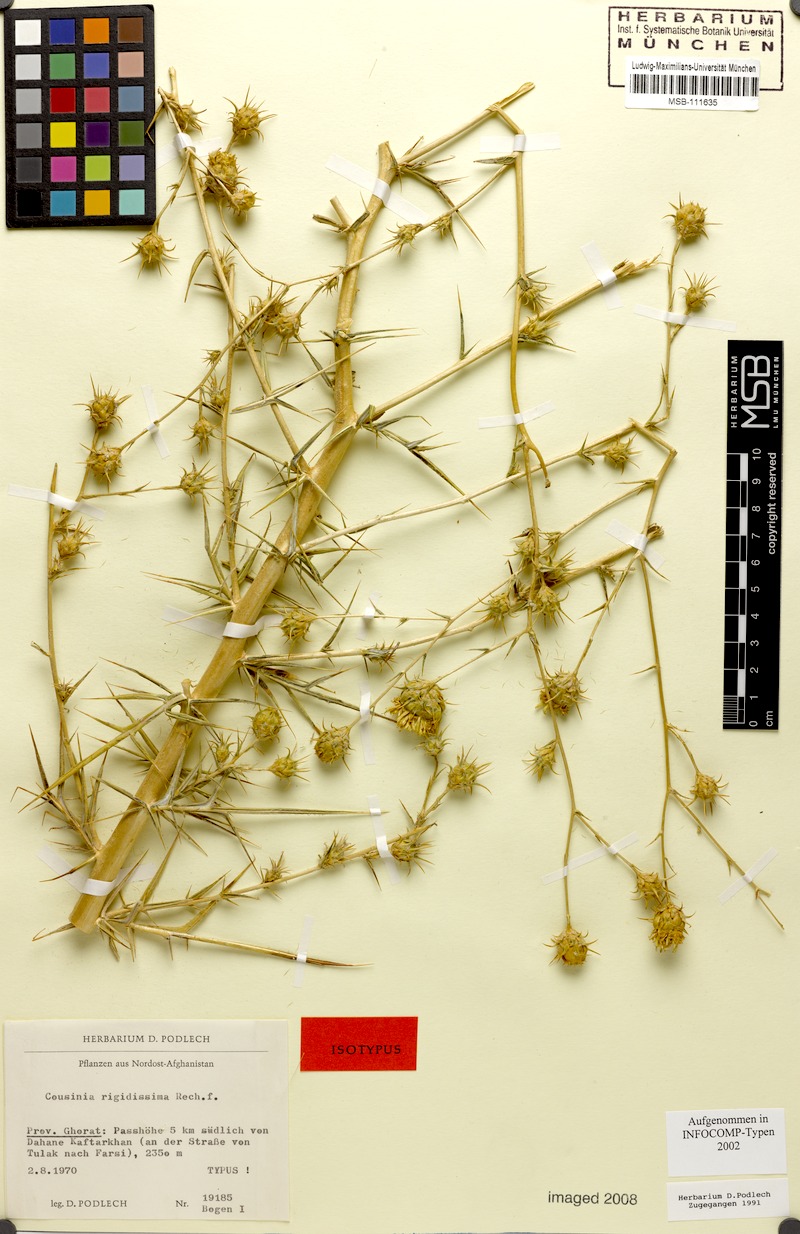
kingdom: Plantae
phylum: Tracheophyta
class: Magnoliopsida
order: Asterales
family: Asteraceae
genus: Cousinia
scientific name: Cousinia rigidissima
